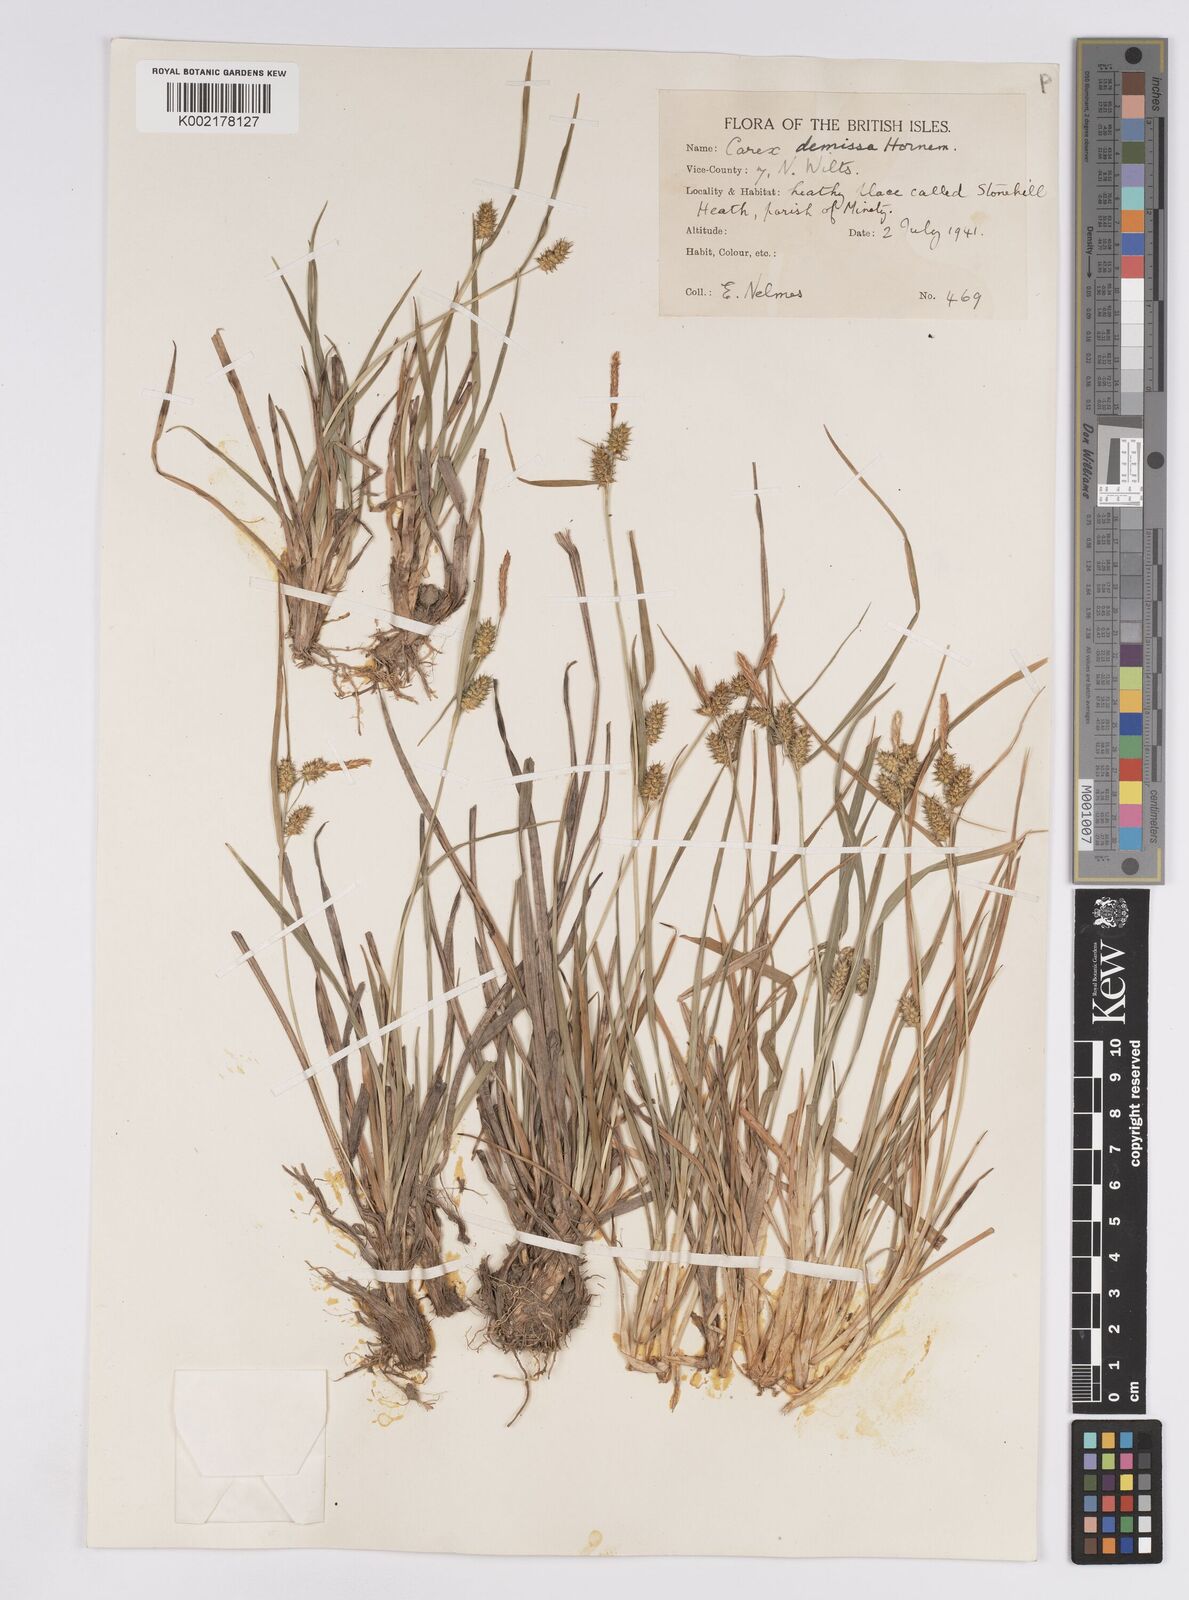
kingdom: Plantae
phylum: Tracheophyta
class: Liliopsida
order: Poales
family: Cyperaceae
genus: Carex
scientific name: Carex demissa
